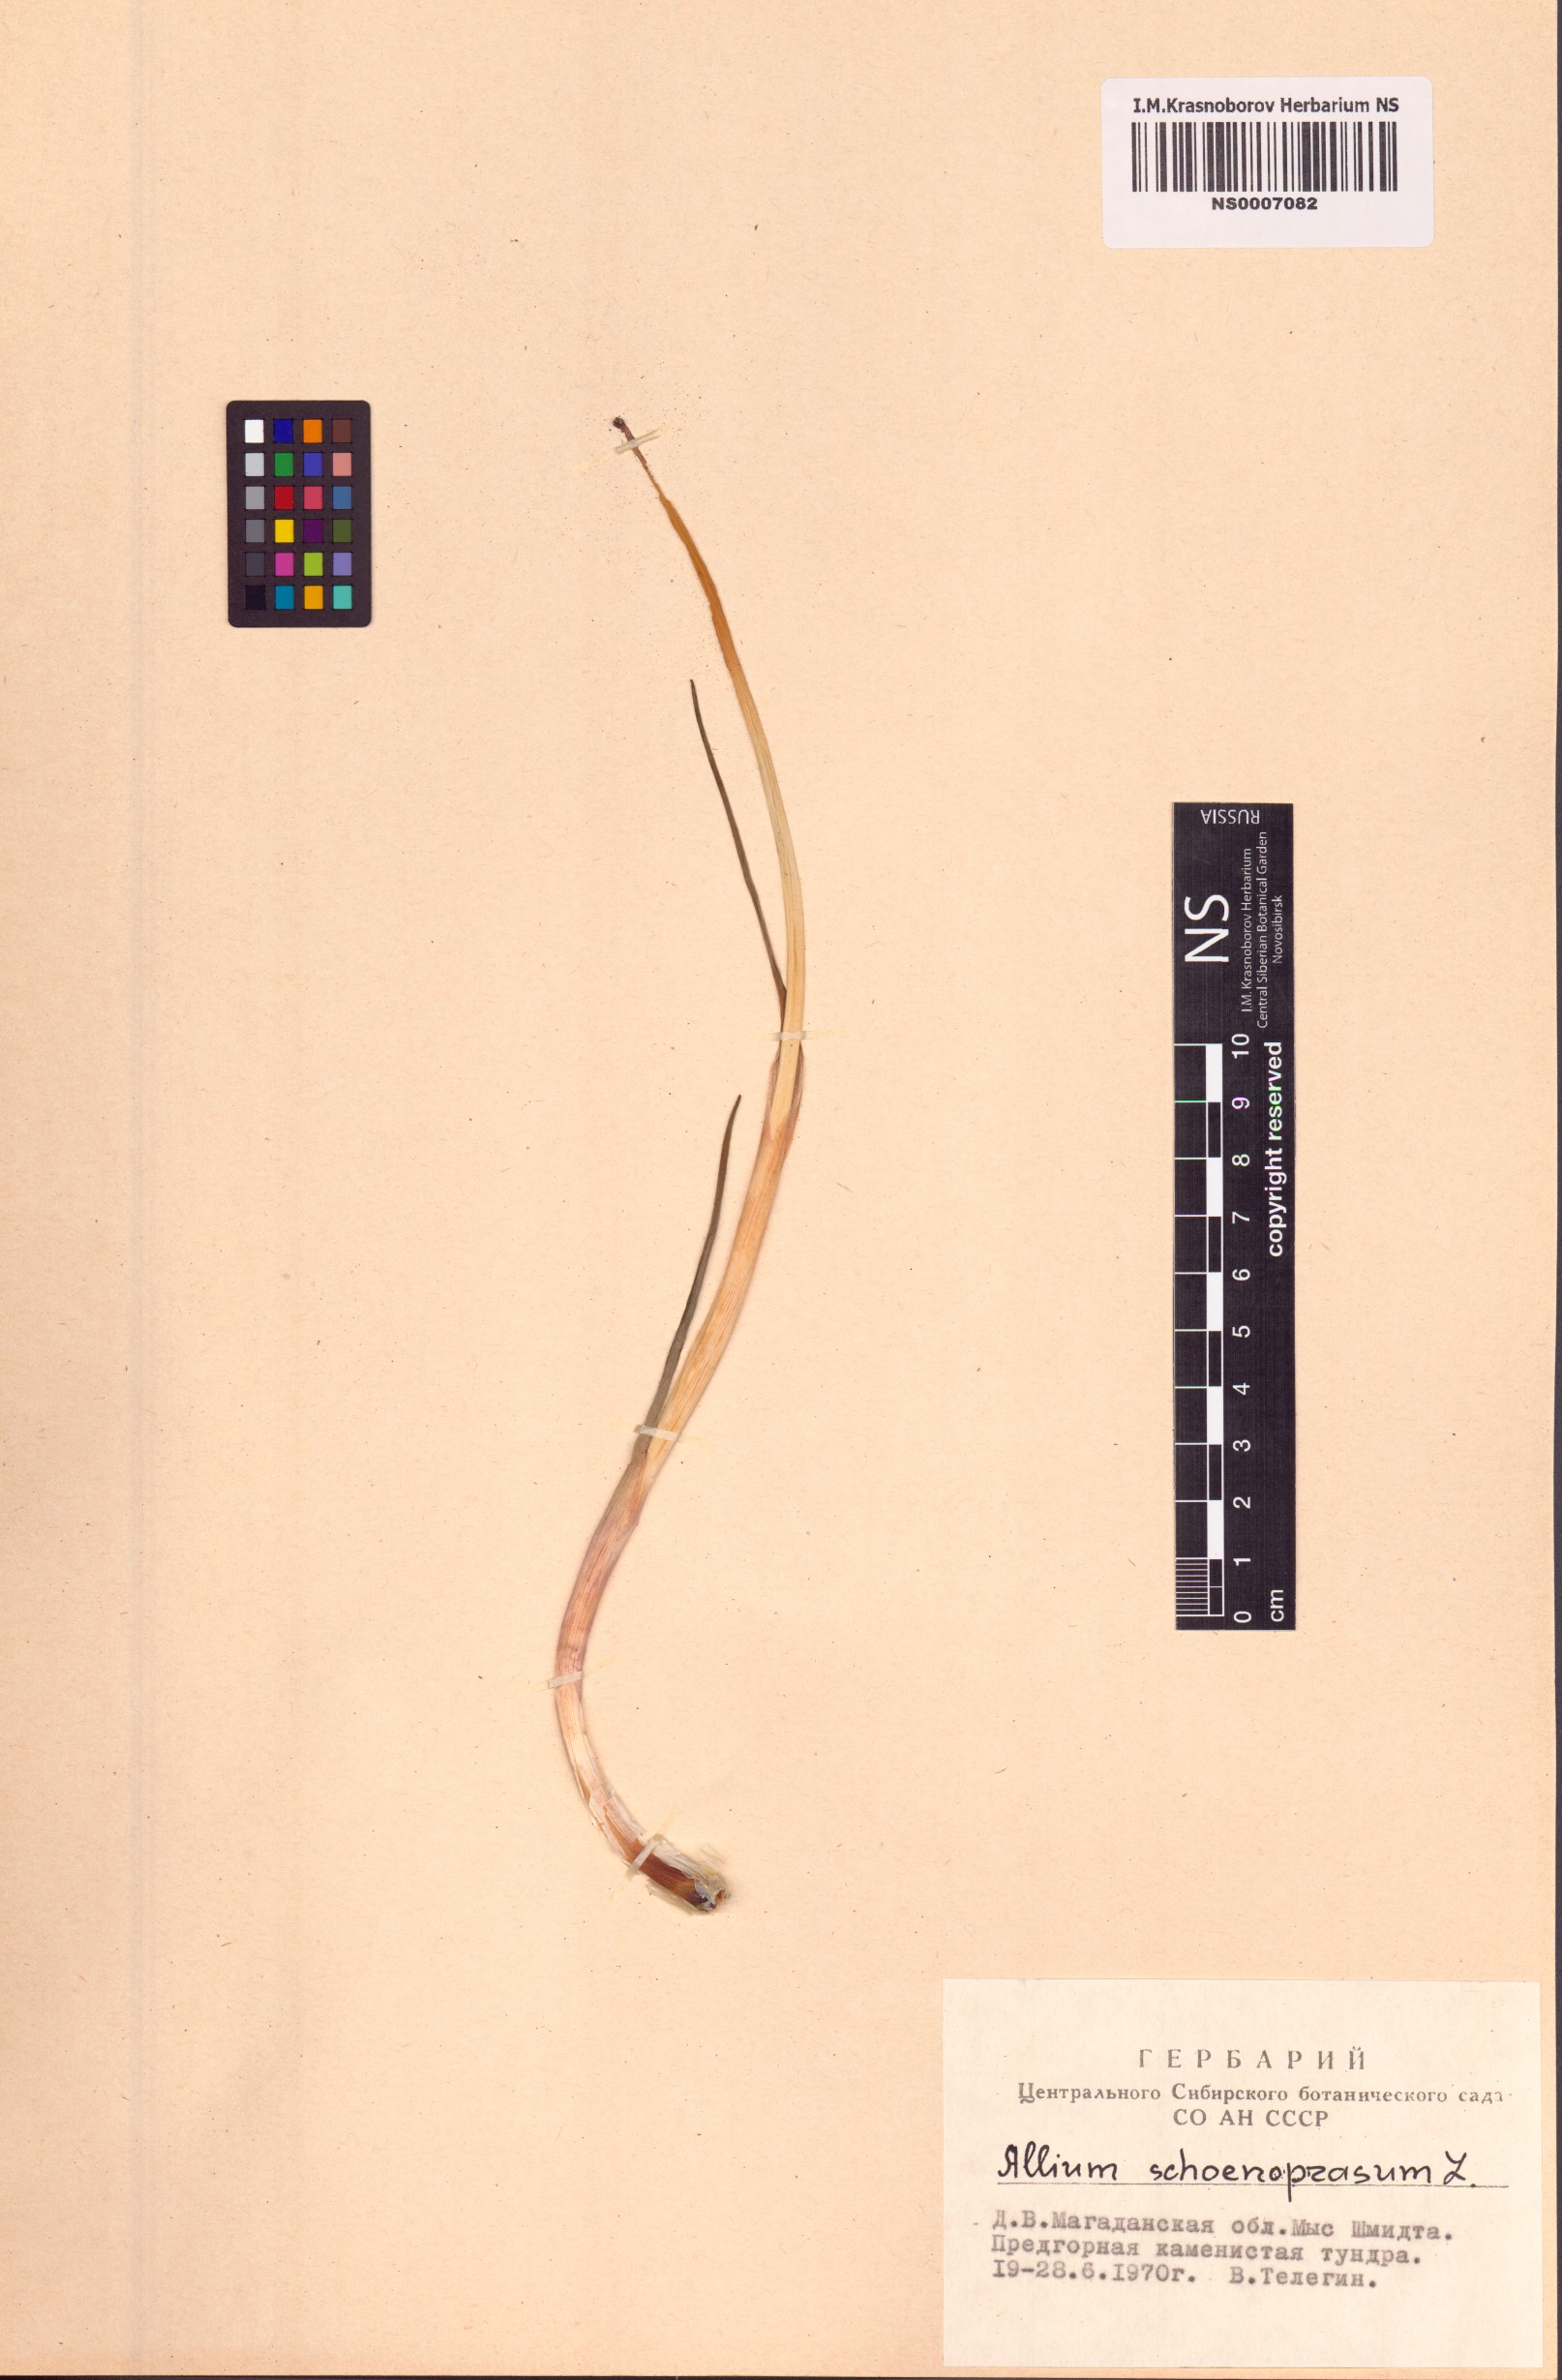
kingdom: Plantae
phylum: Tracheophyta
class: Liliopsida
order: Asparagales
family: Amaryllidaceae
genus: Allium
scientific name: Allium schoenoprasum
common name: Chives
